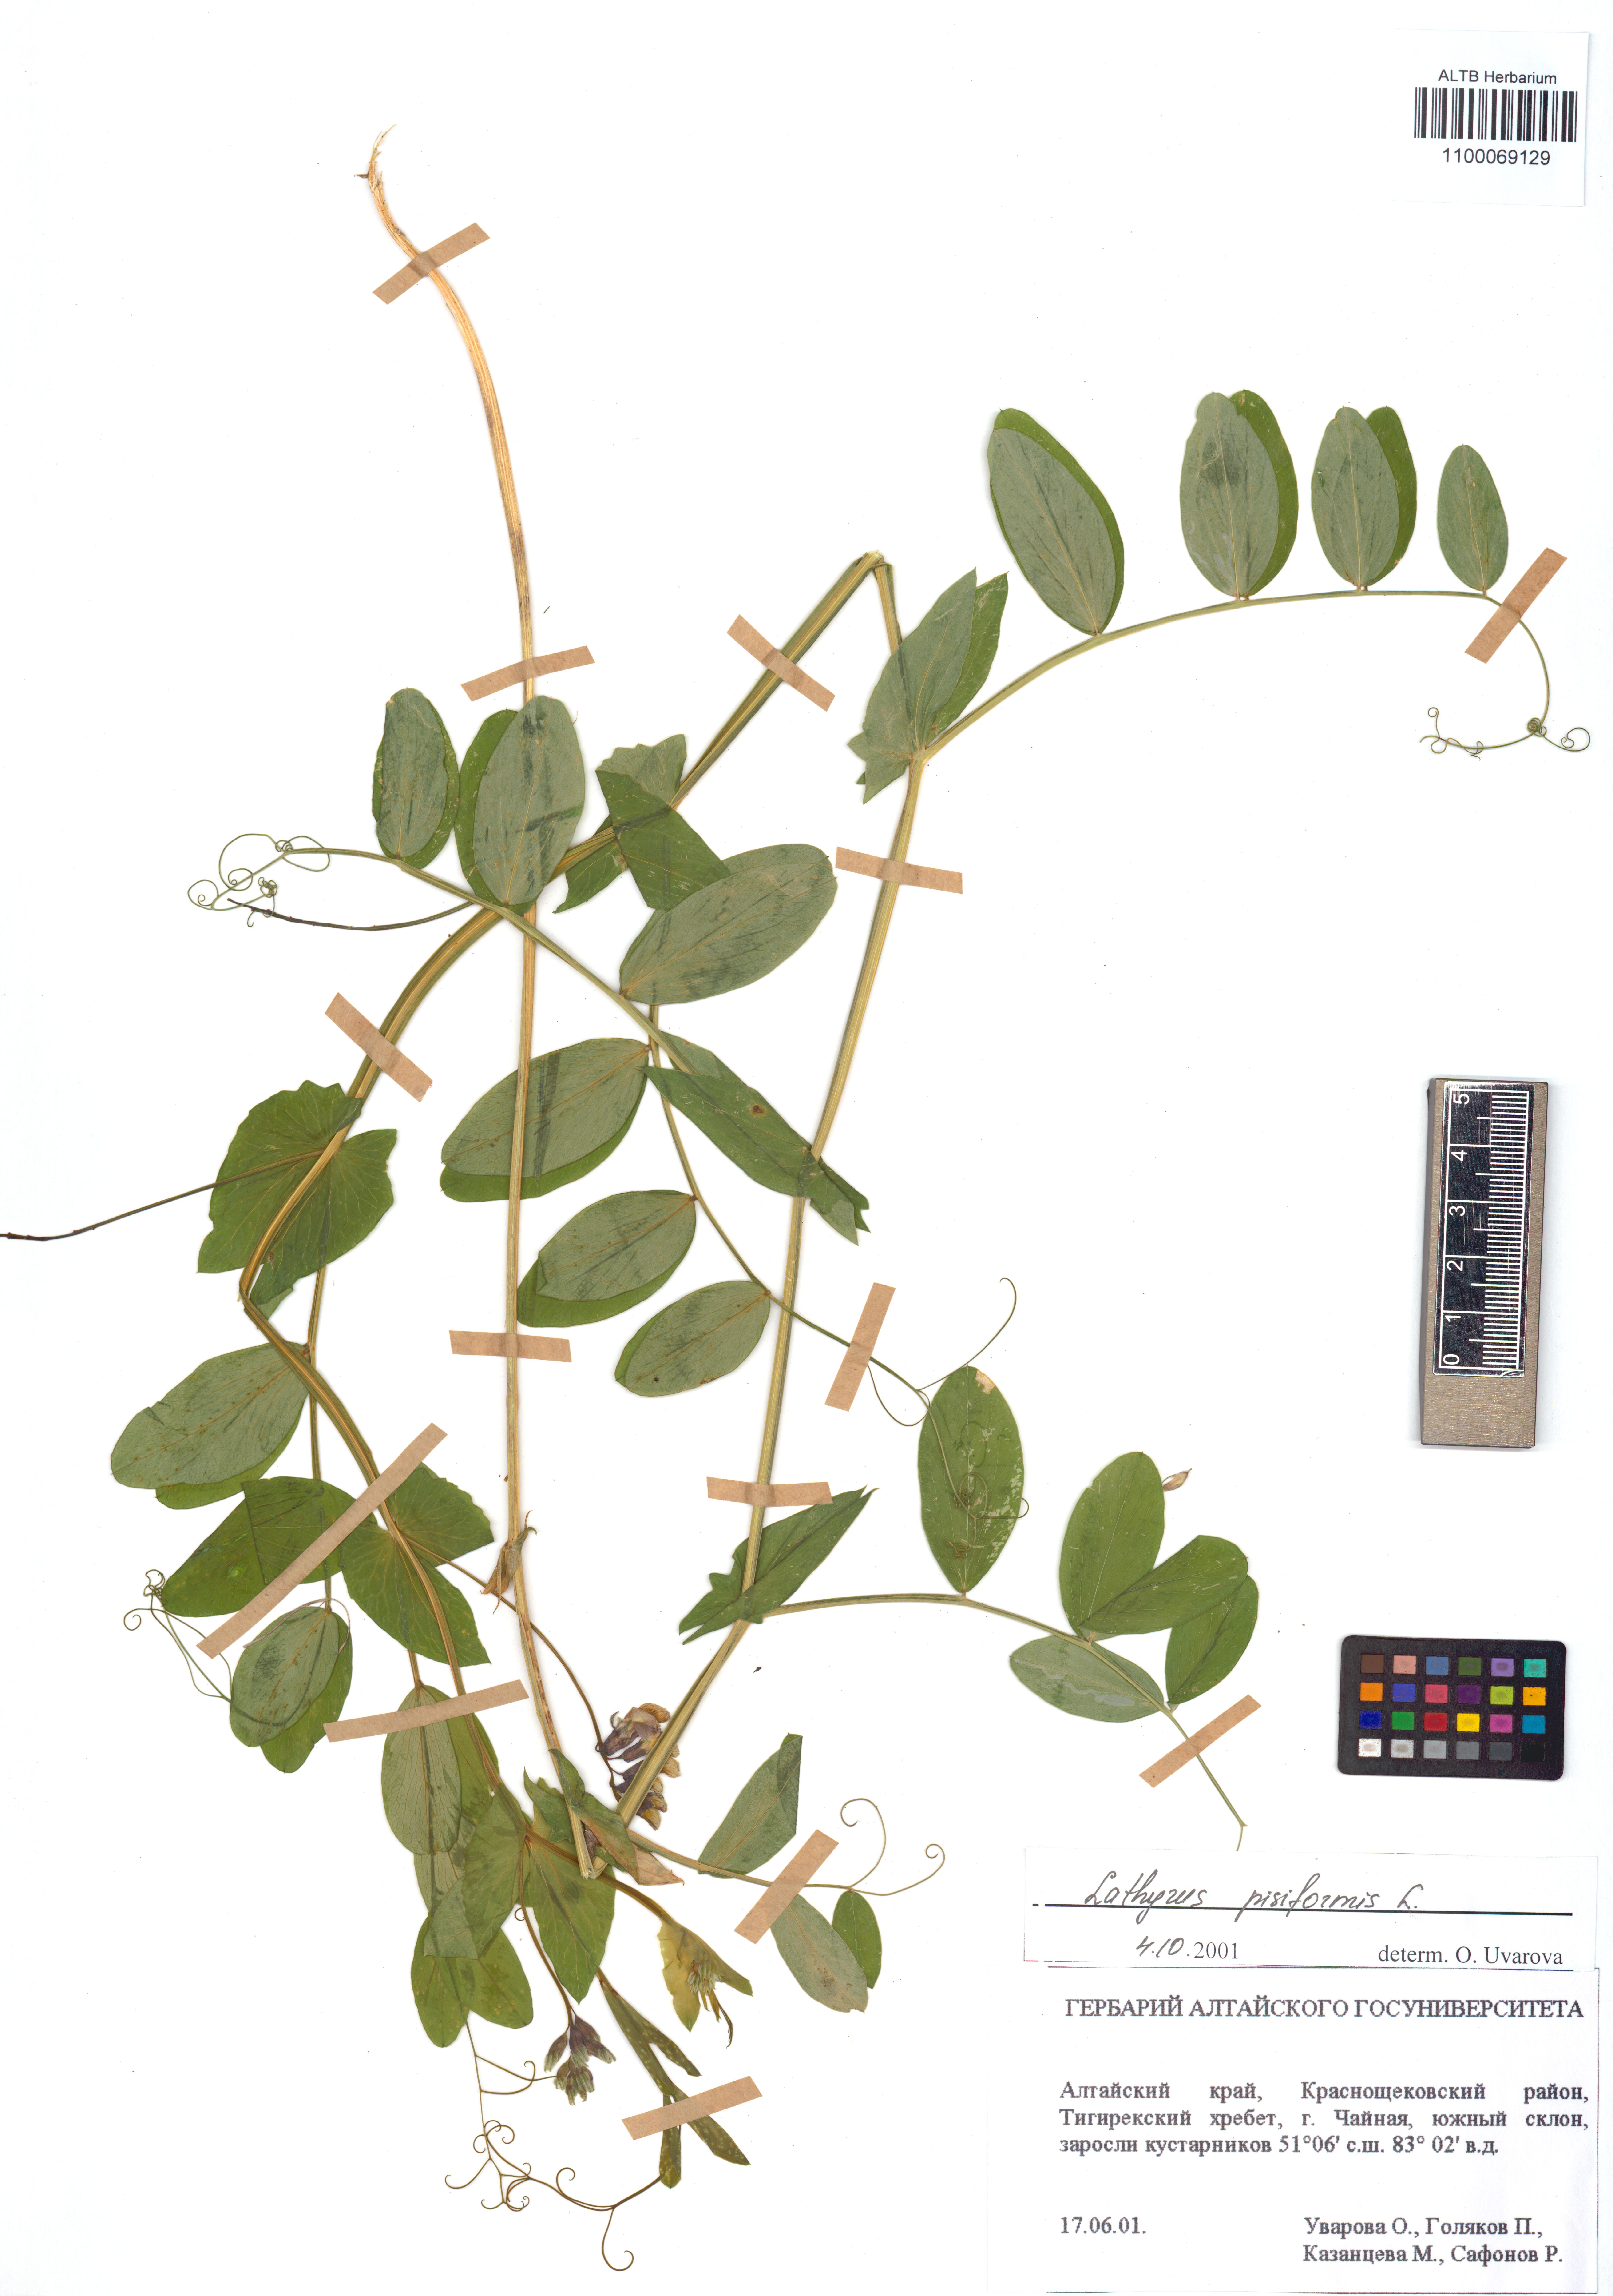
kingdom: Plantae
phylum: Tracheophyta
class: Magnoliopsida
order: Fabales
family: Fabaceae
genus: Lathyrus
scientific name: Lathyrus pisiformis
